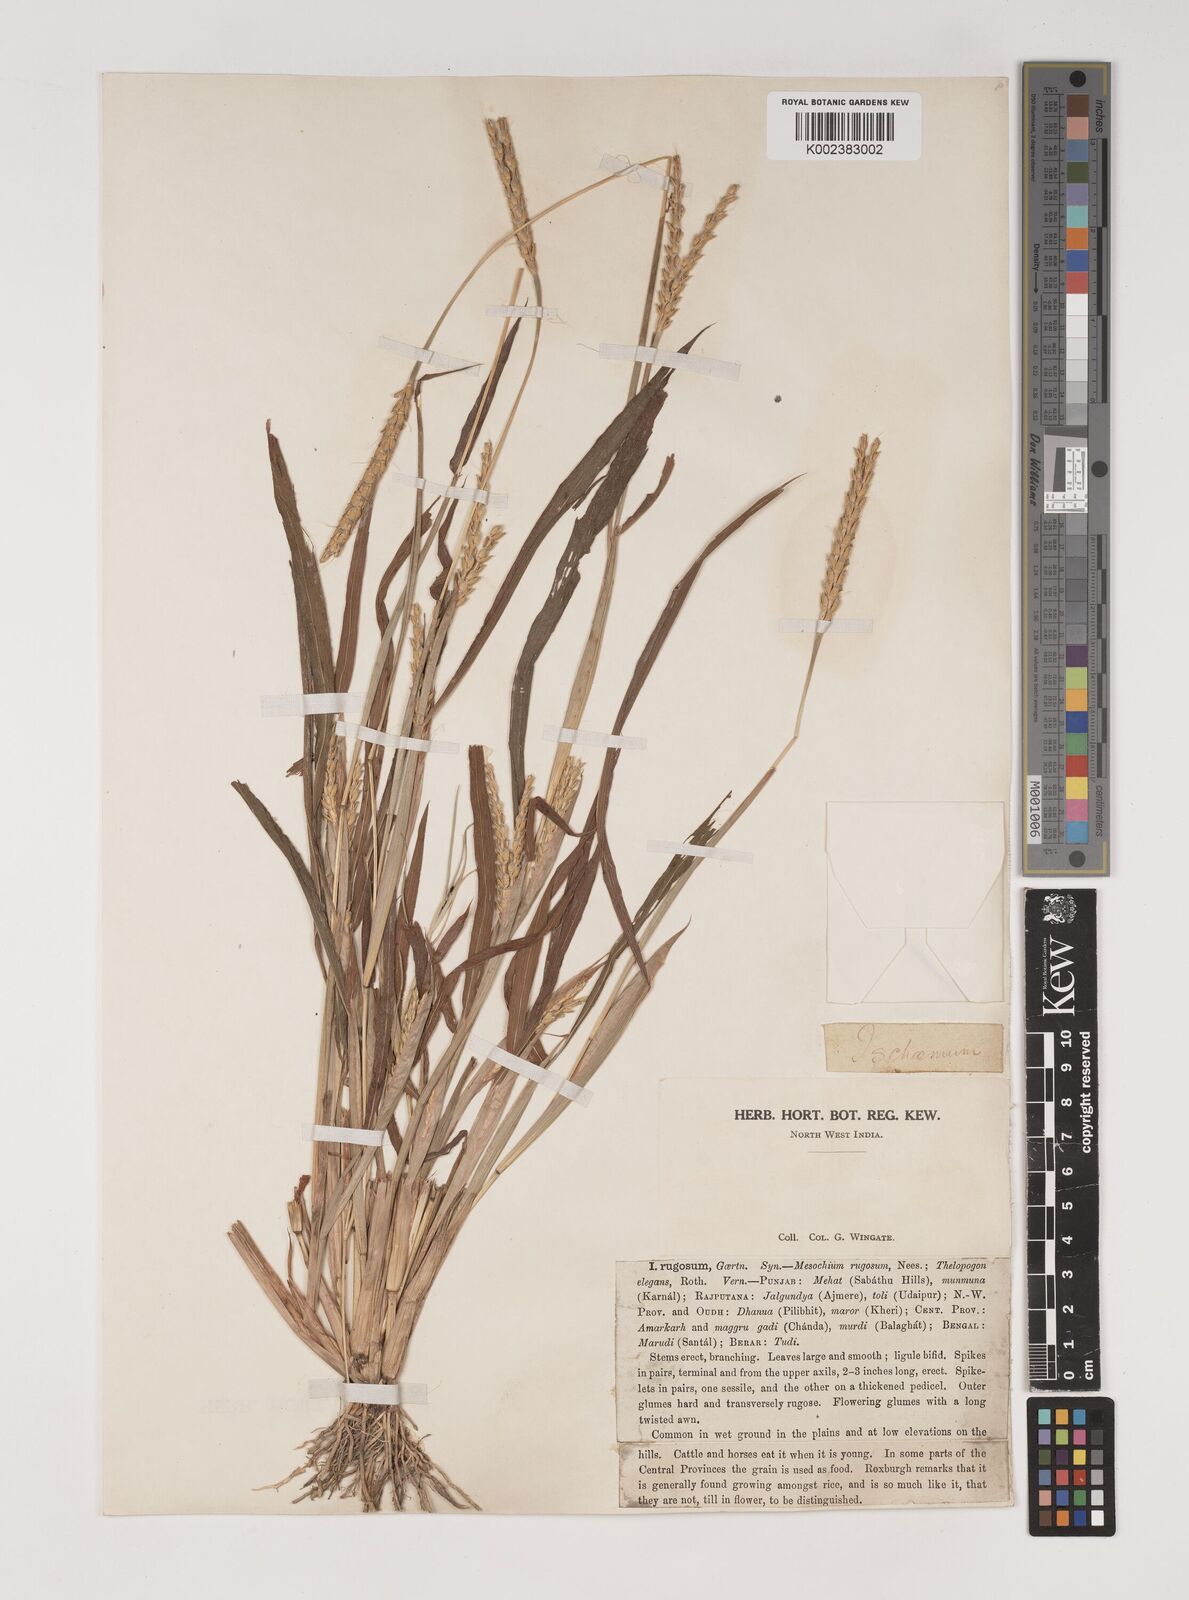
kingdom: Plantae
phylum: Tracheophyta
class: Liliopsida
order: Poales
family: Poaceae
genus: Ischaemum
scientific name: Ischaemum rugosum
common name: Saramatta grass
